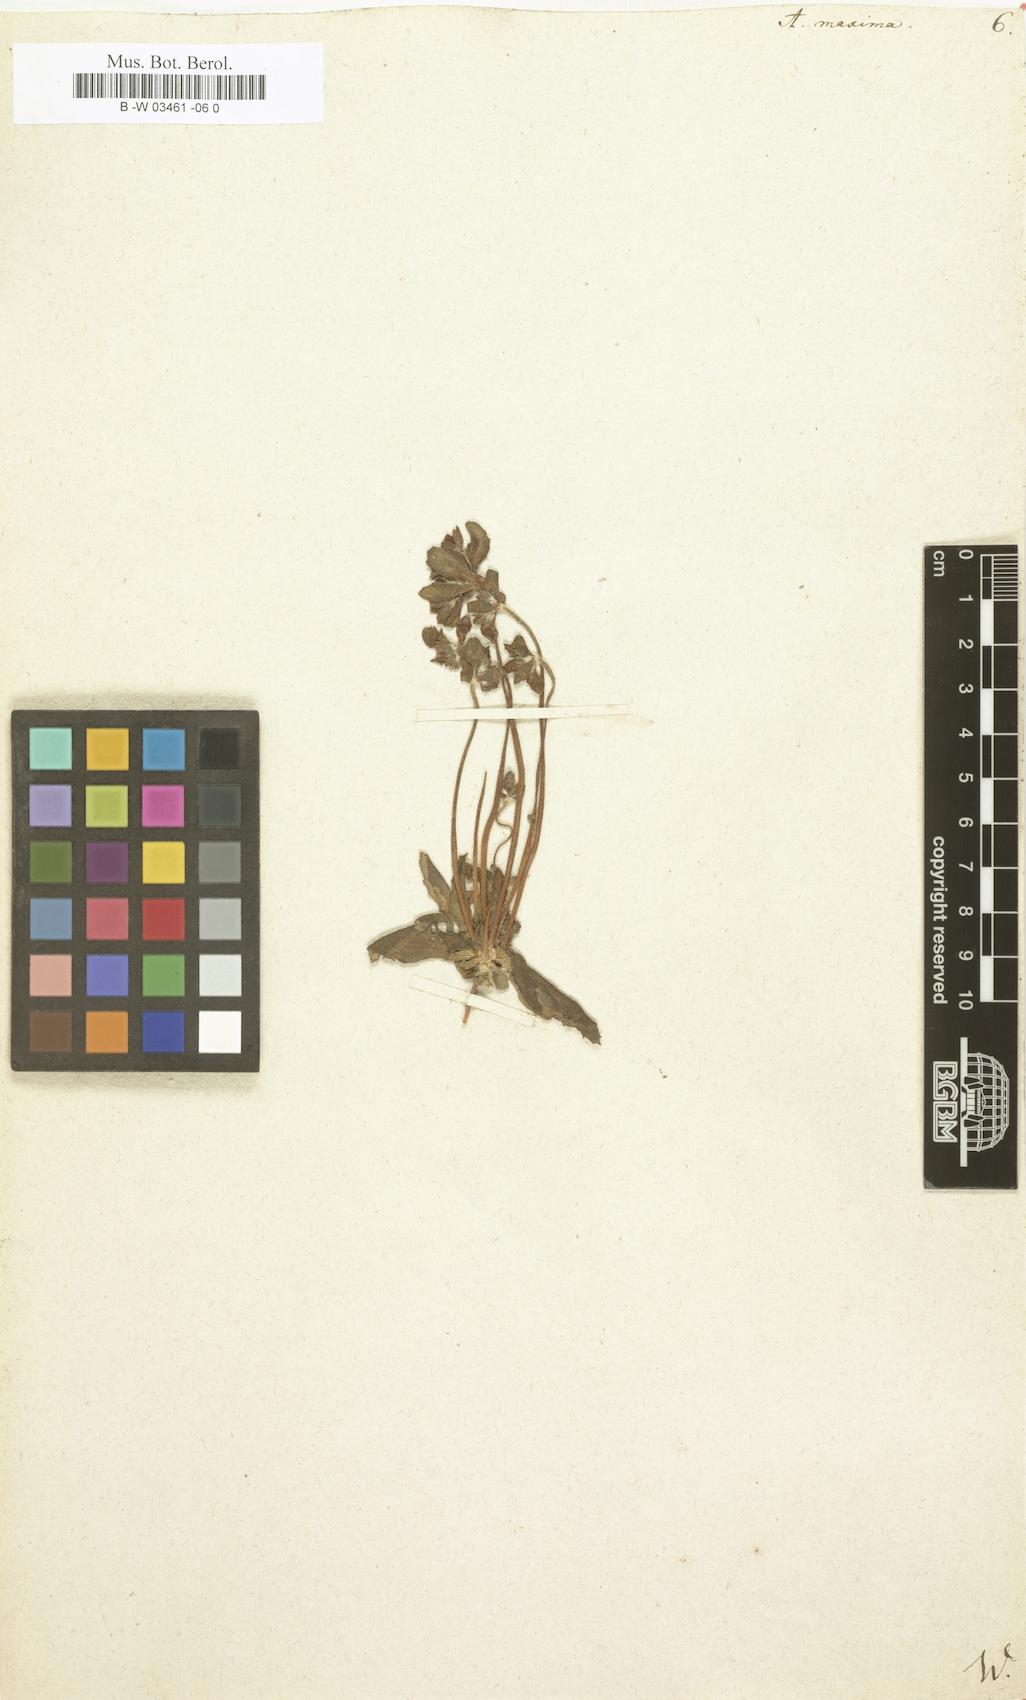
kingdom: Plantae
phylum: Tracheophyta
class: Magnoliopsida
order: Ericales
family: Primulaceae
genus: Androsace
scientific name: Androsace maxima
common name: Annual androsace
